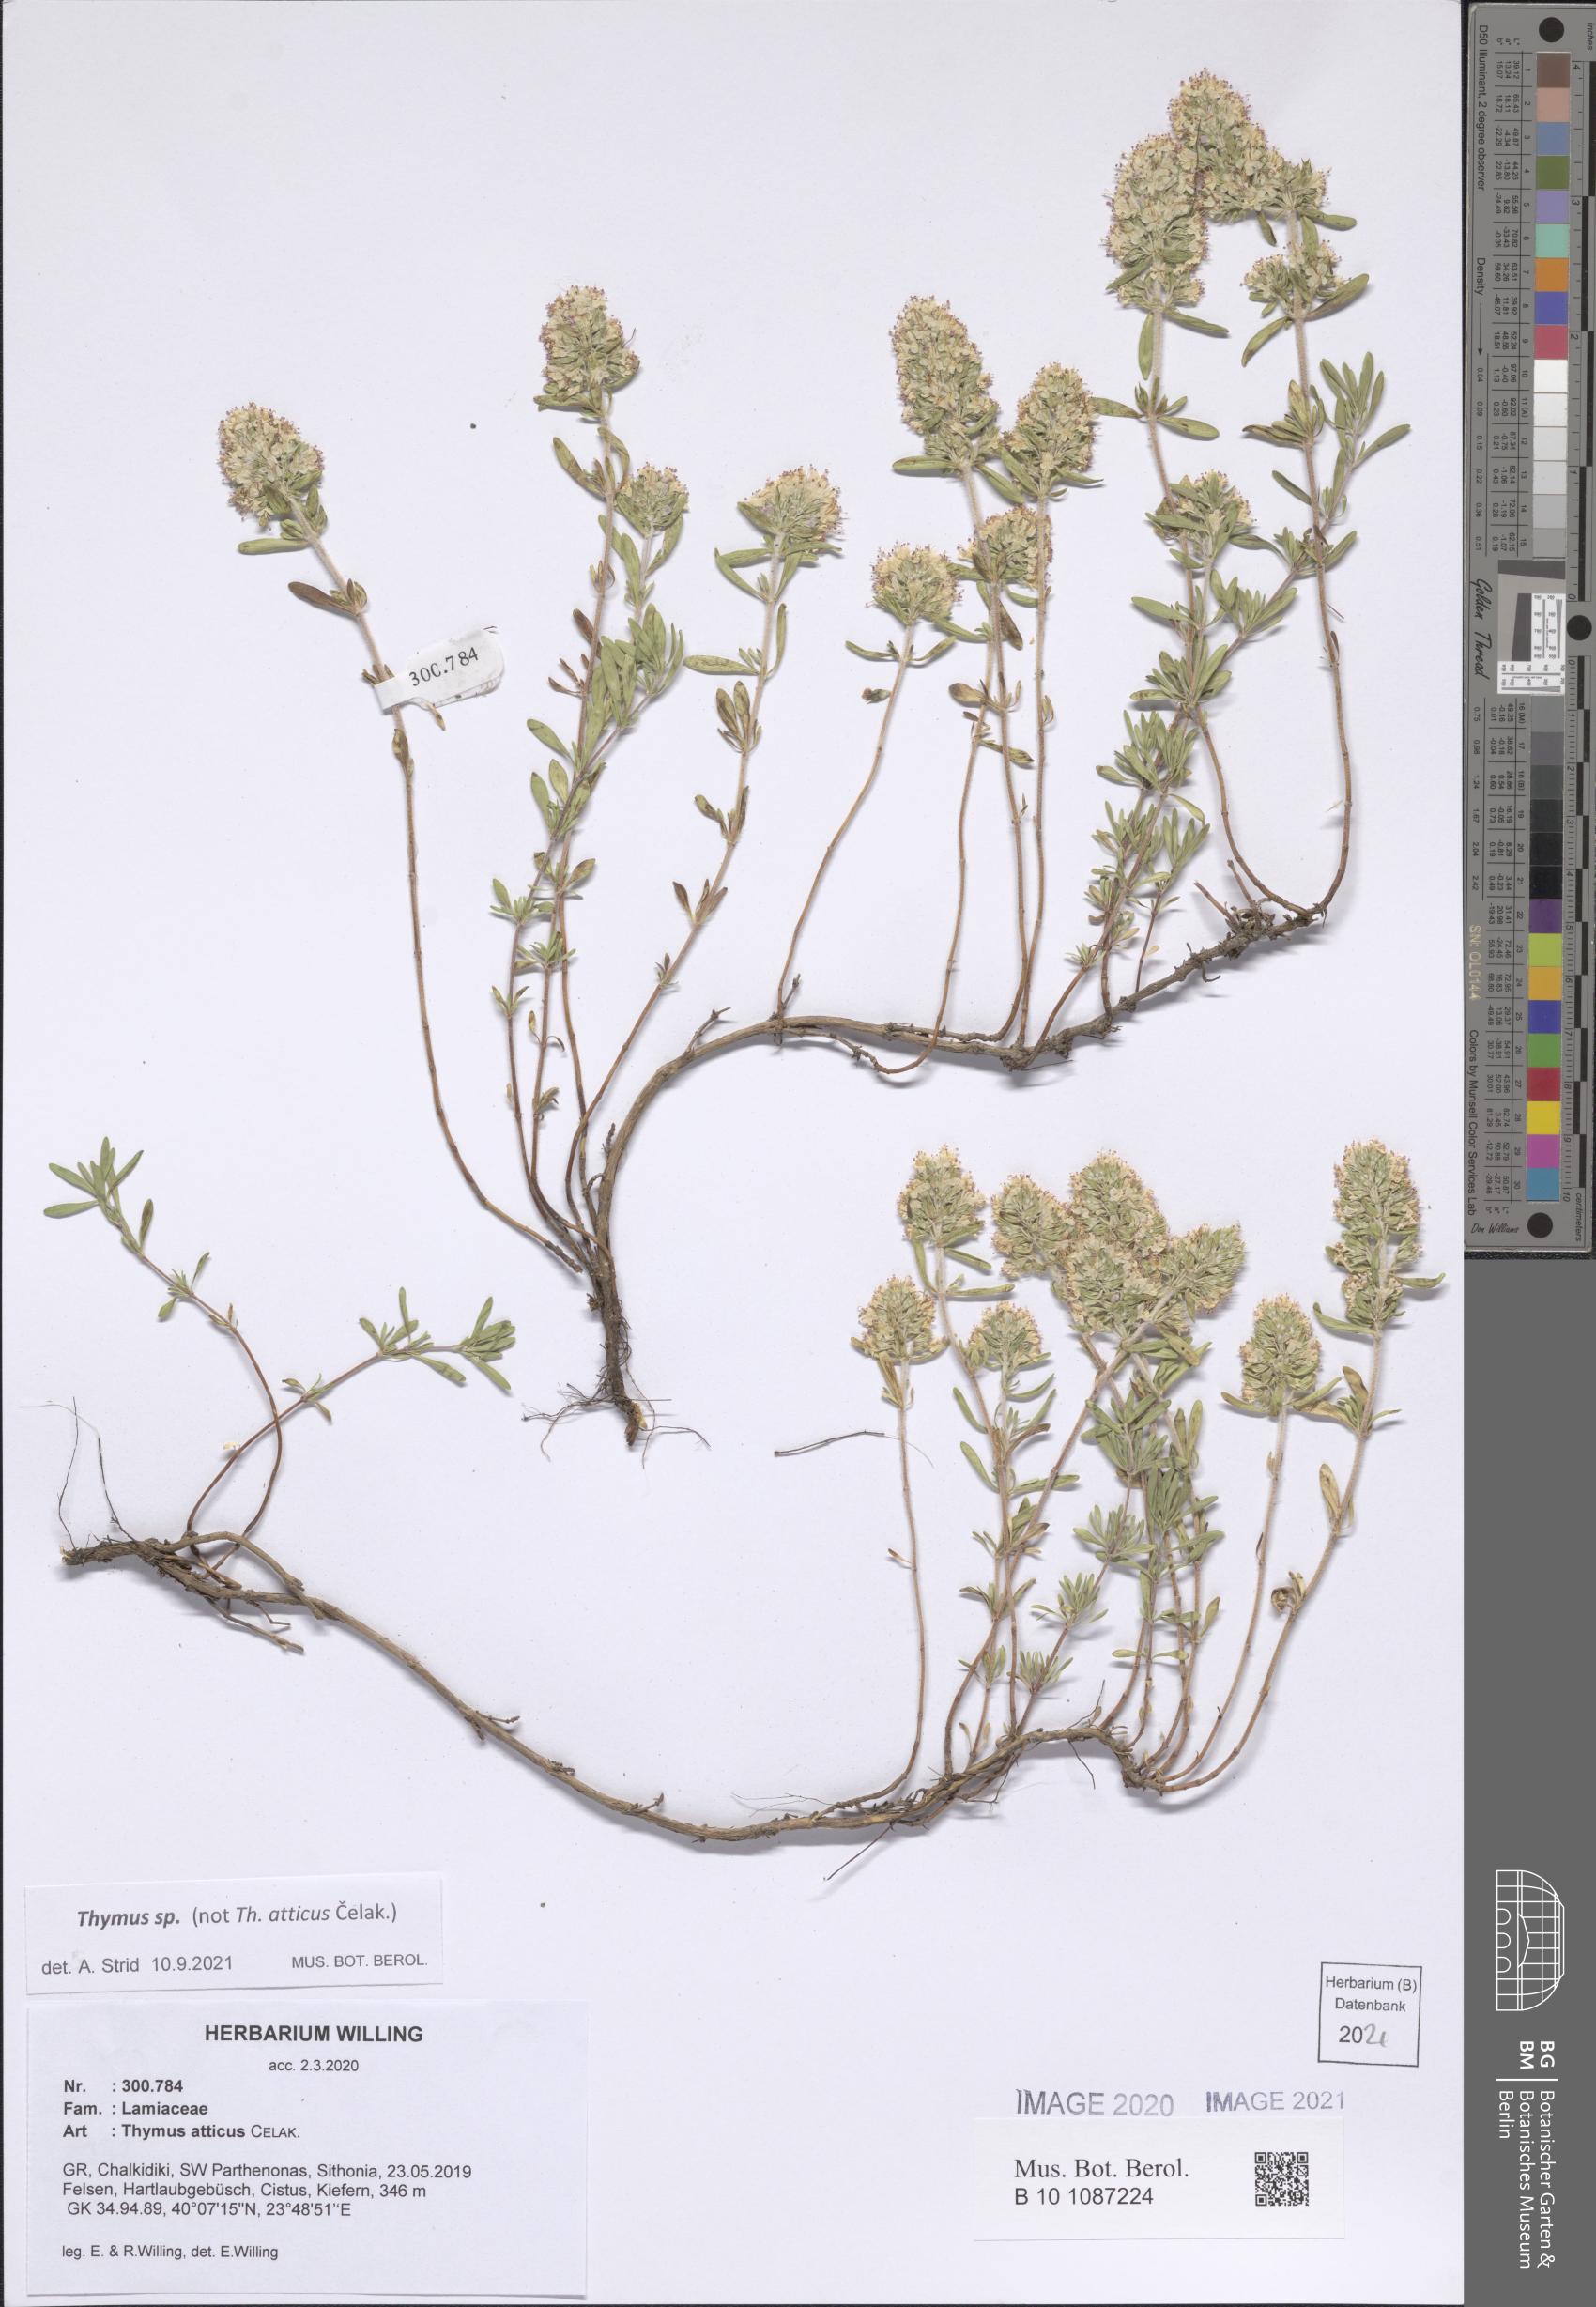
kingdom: Plantae
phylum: Tracheophyta
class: Magnoliopsida
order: Lamiales
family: Lamiaceae
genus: Thymus
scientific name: Thymus
